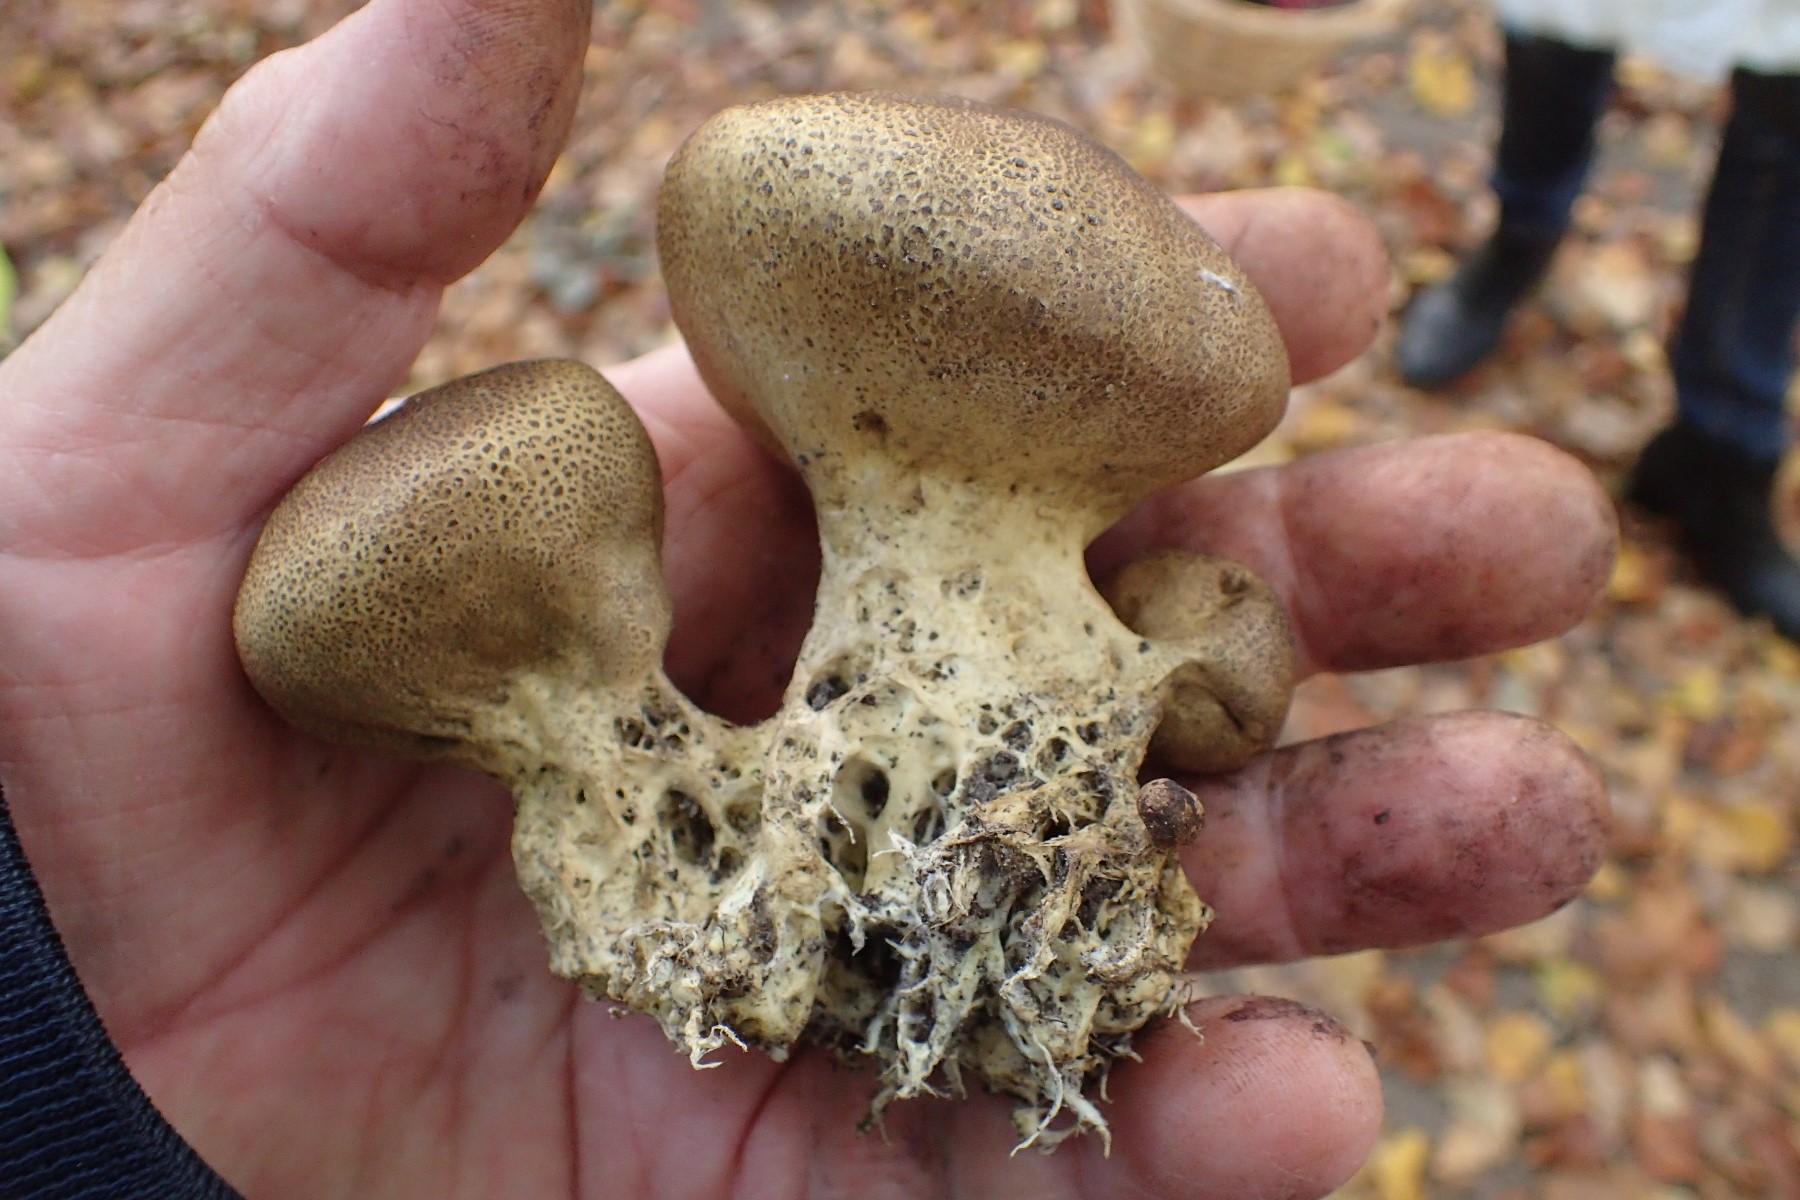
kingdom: Fungi
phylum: Basidiomycota
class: Agaricomycetes
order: Boletales
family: Sclerodermataceae
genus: Scleroderma
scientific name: Scleroderma verrucosum
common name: stilket bruskbold
